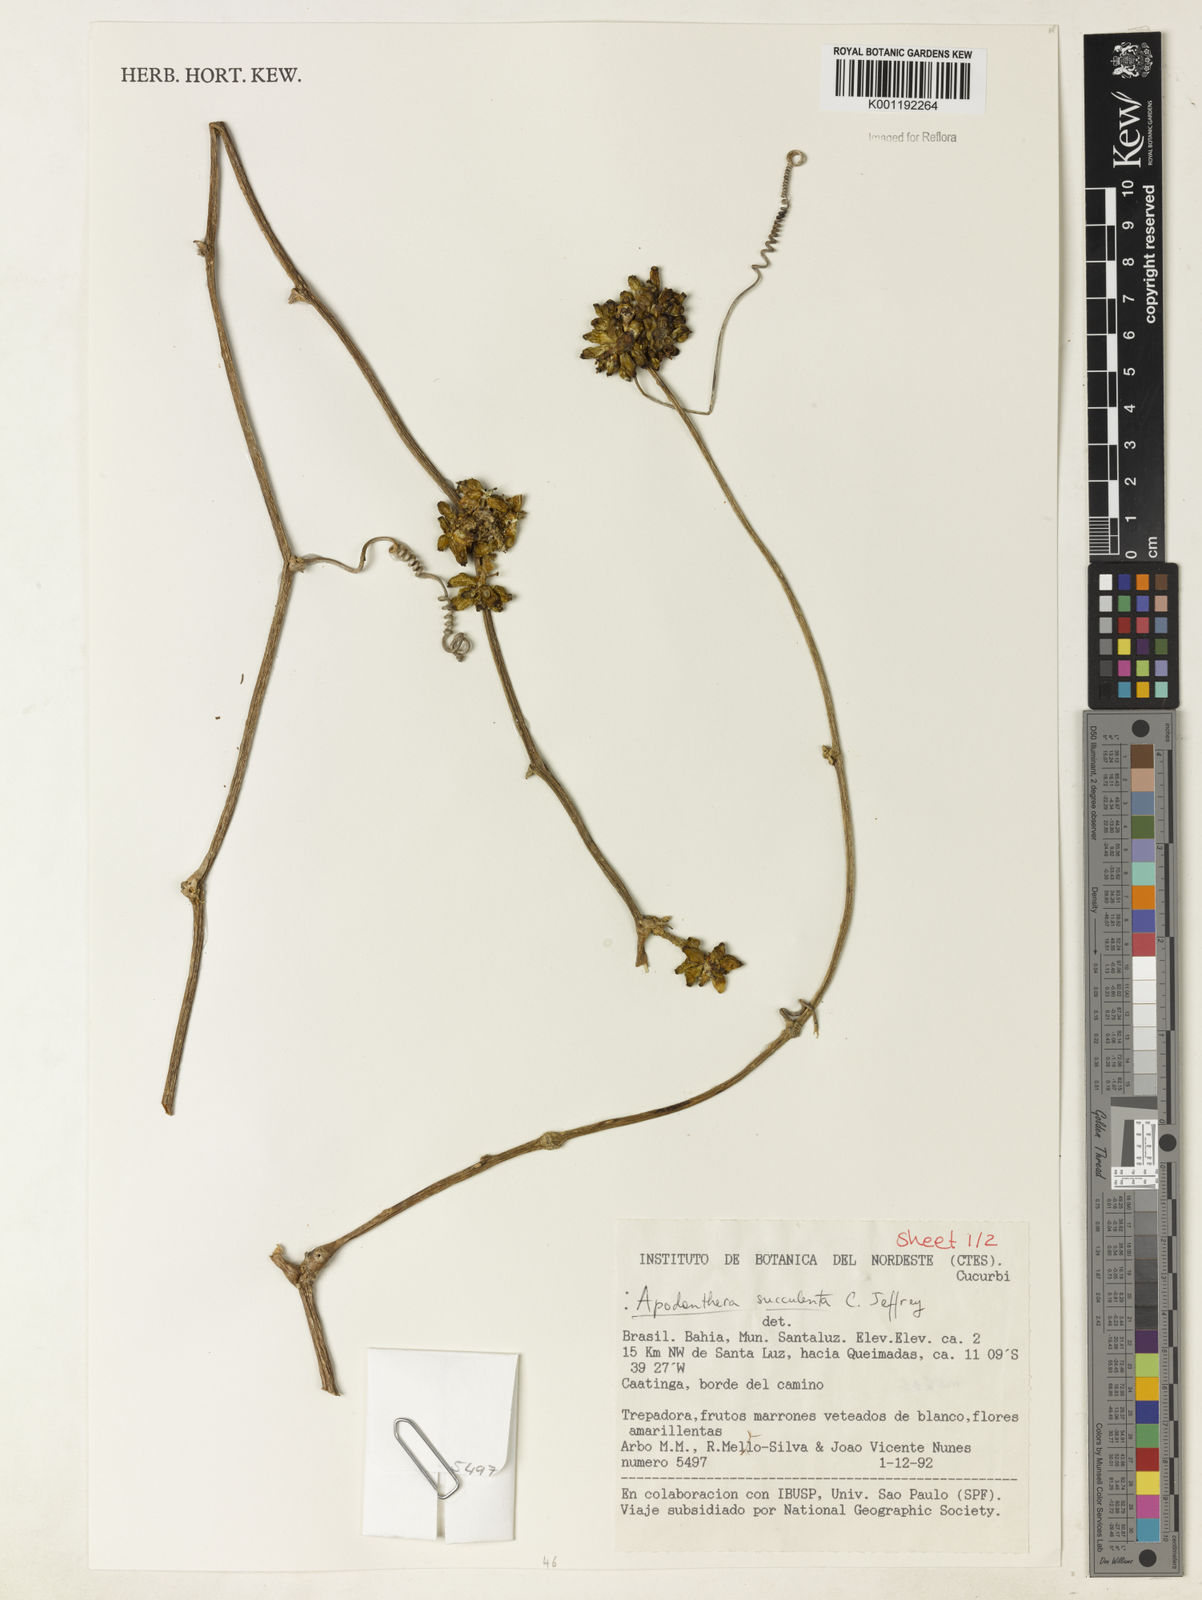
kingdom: Plantae
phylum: Tracheophyta
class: Magnoliopsida
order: Cucurbitales
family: Cucurbitaceae
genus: Apodanthera
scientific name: Apodanthera villosa
